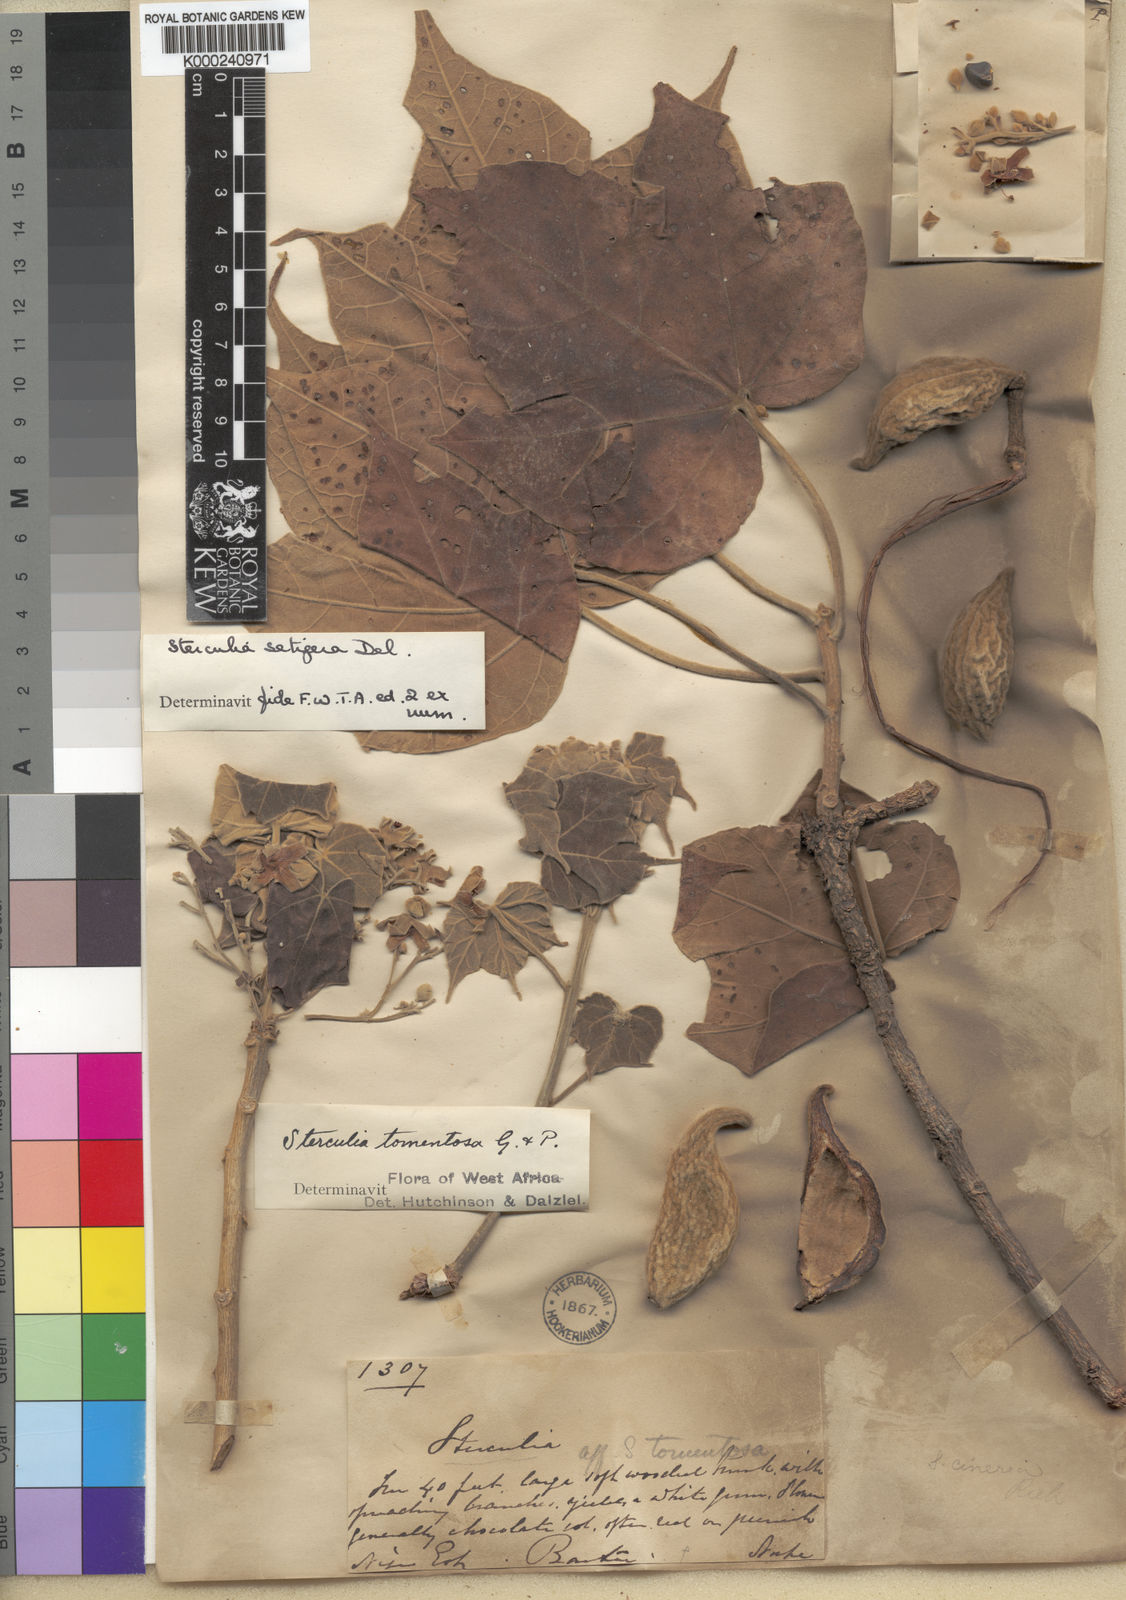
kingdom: Plantae
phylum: Tracheophyta
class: Magnoliopsida
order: Malvales
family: Malvaceae
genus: Sterculia
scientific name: Sterculia setigera
